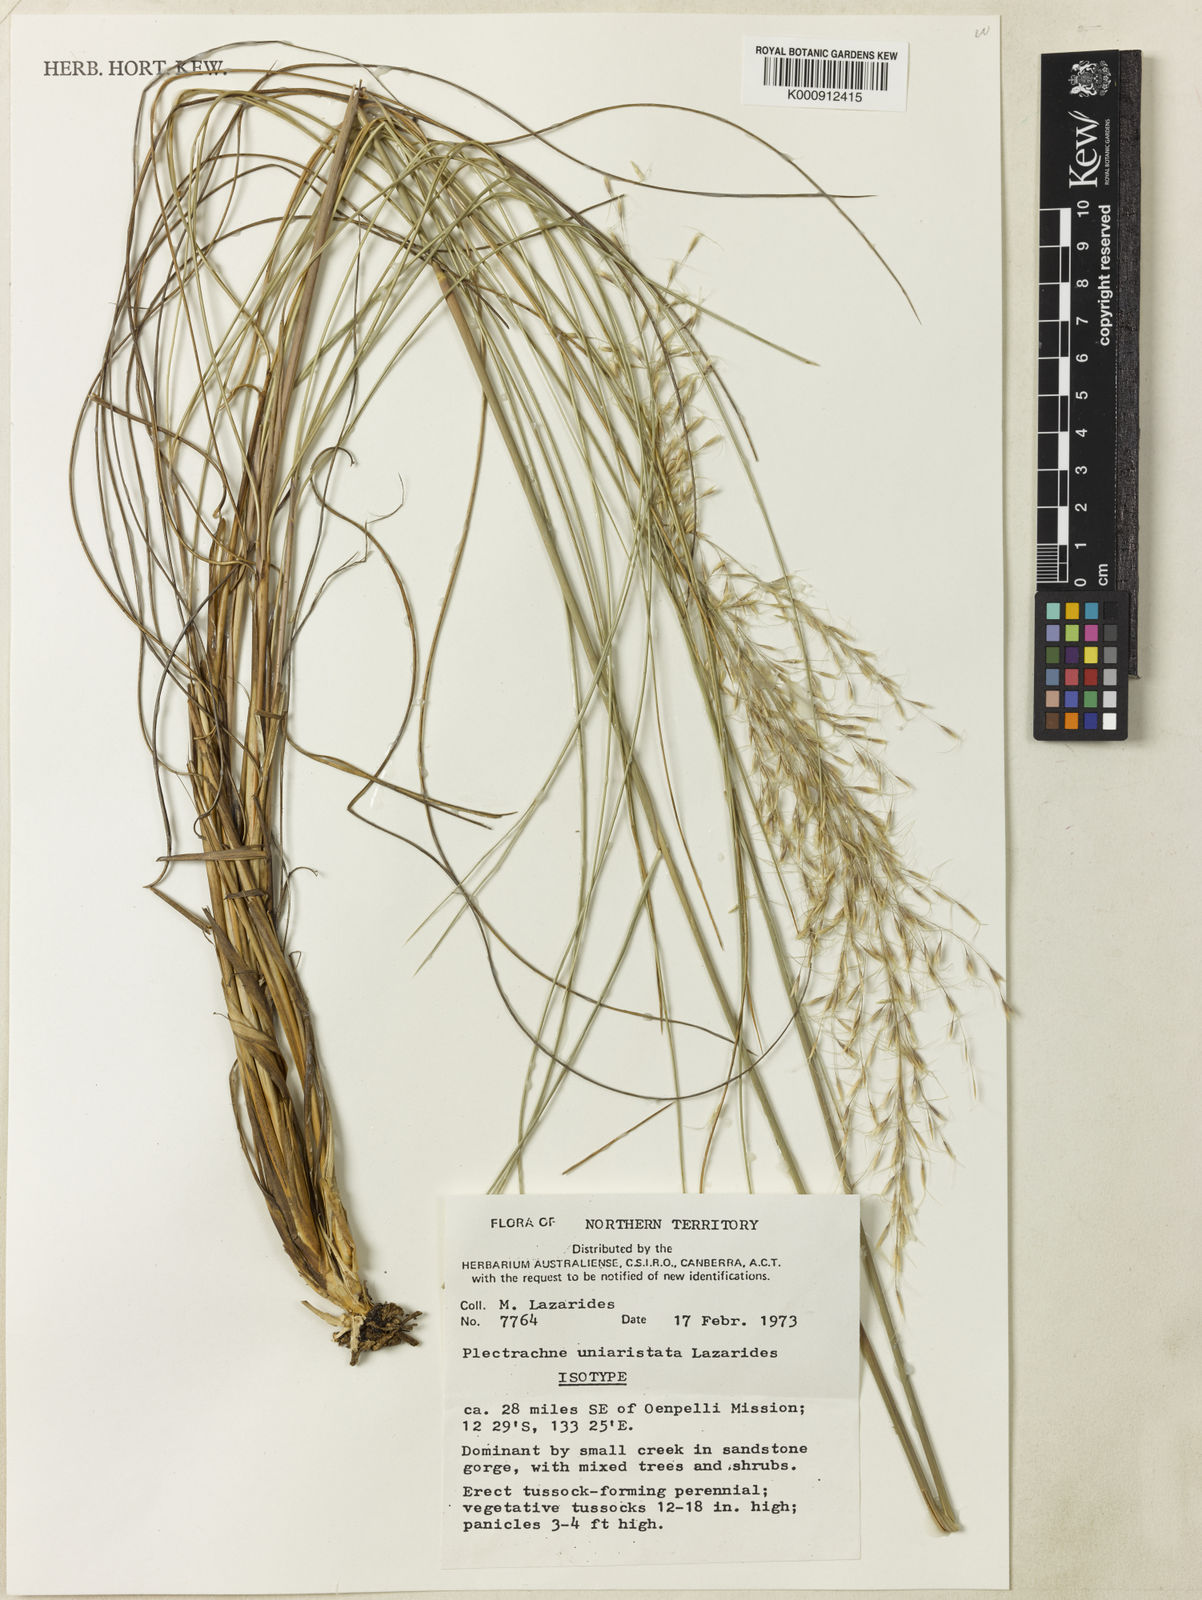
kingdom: Plantae
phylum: Tracheophyta
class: Liliopsida
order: Poales
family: Poaceae
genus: Triodia
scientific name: Triodia uniaristata
